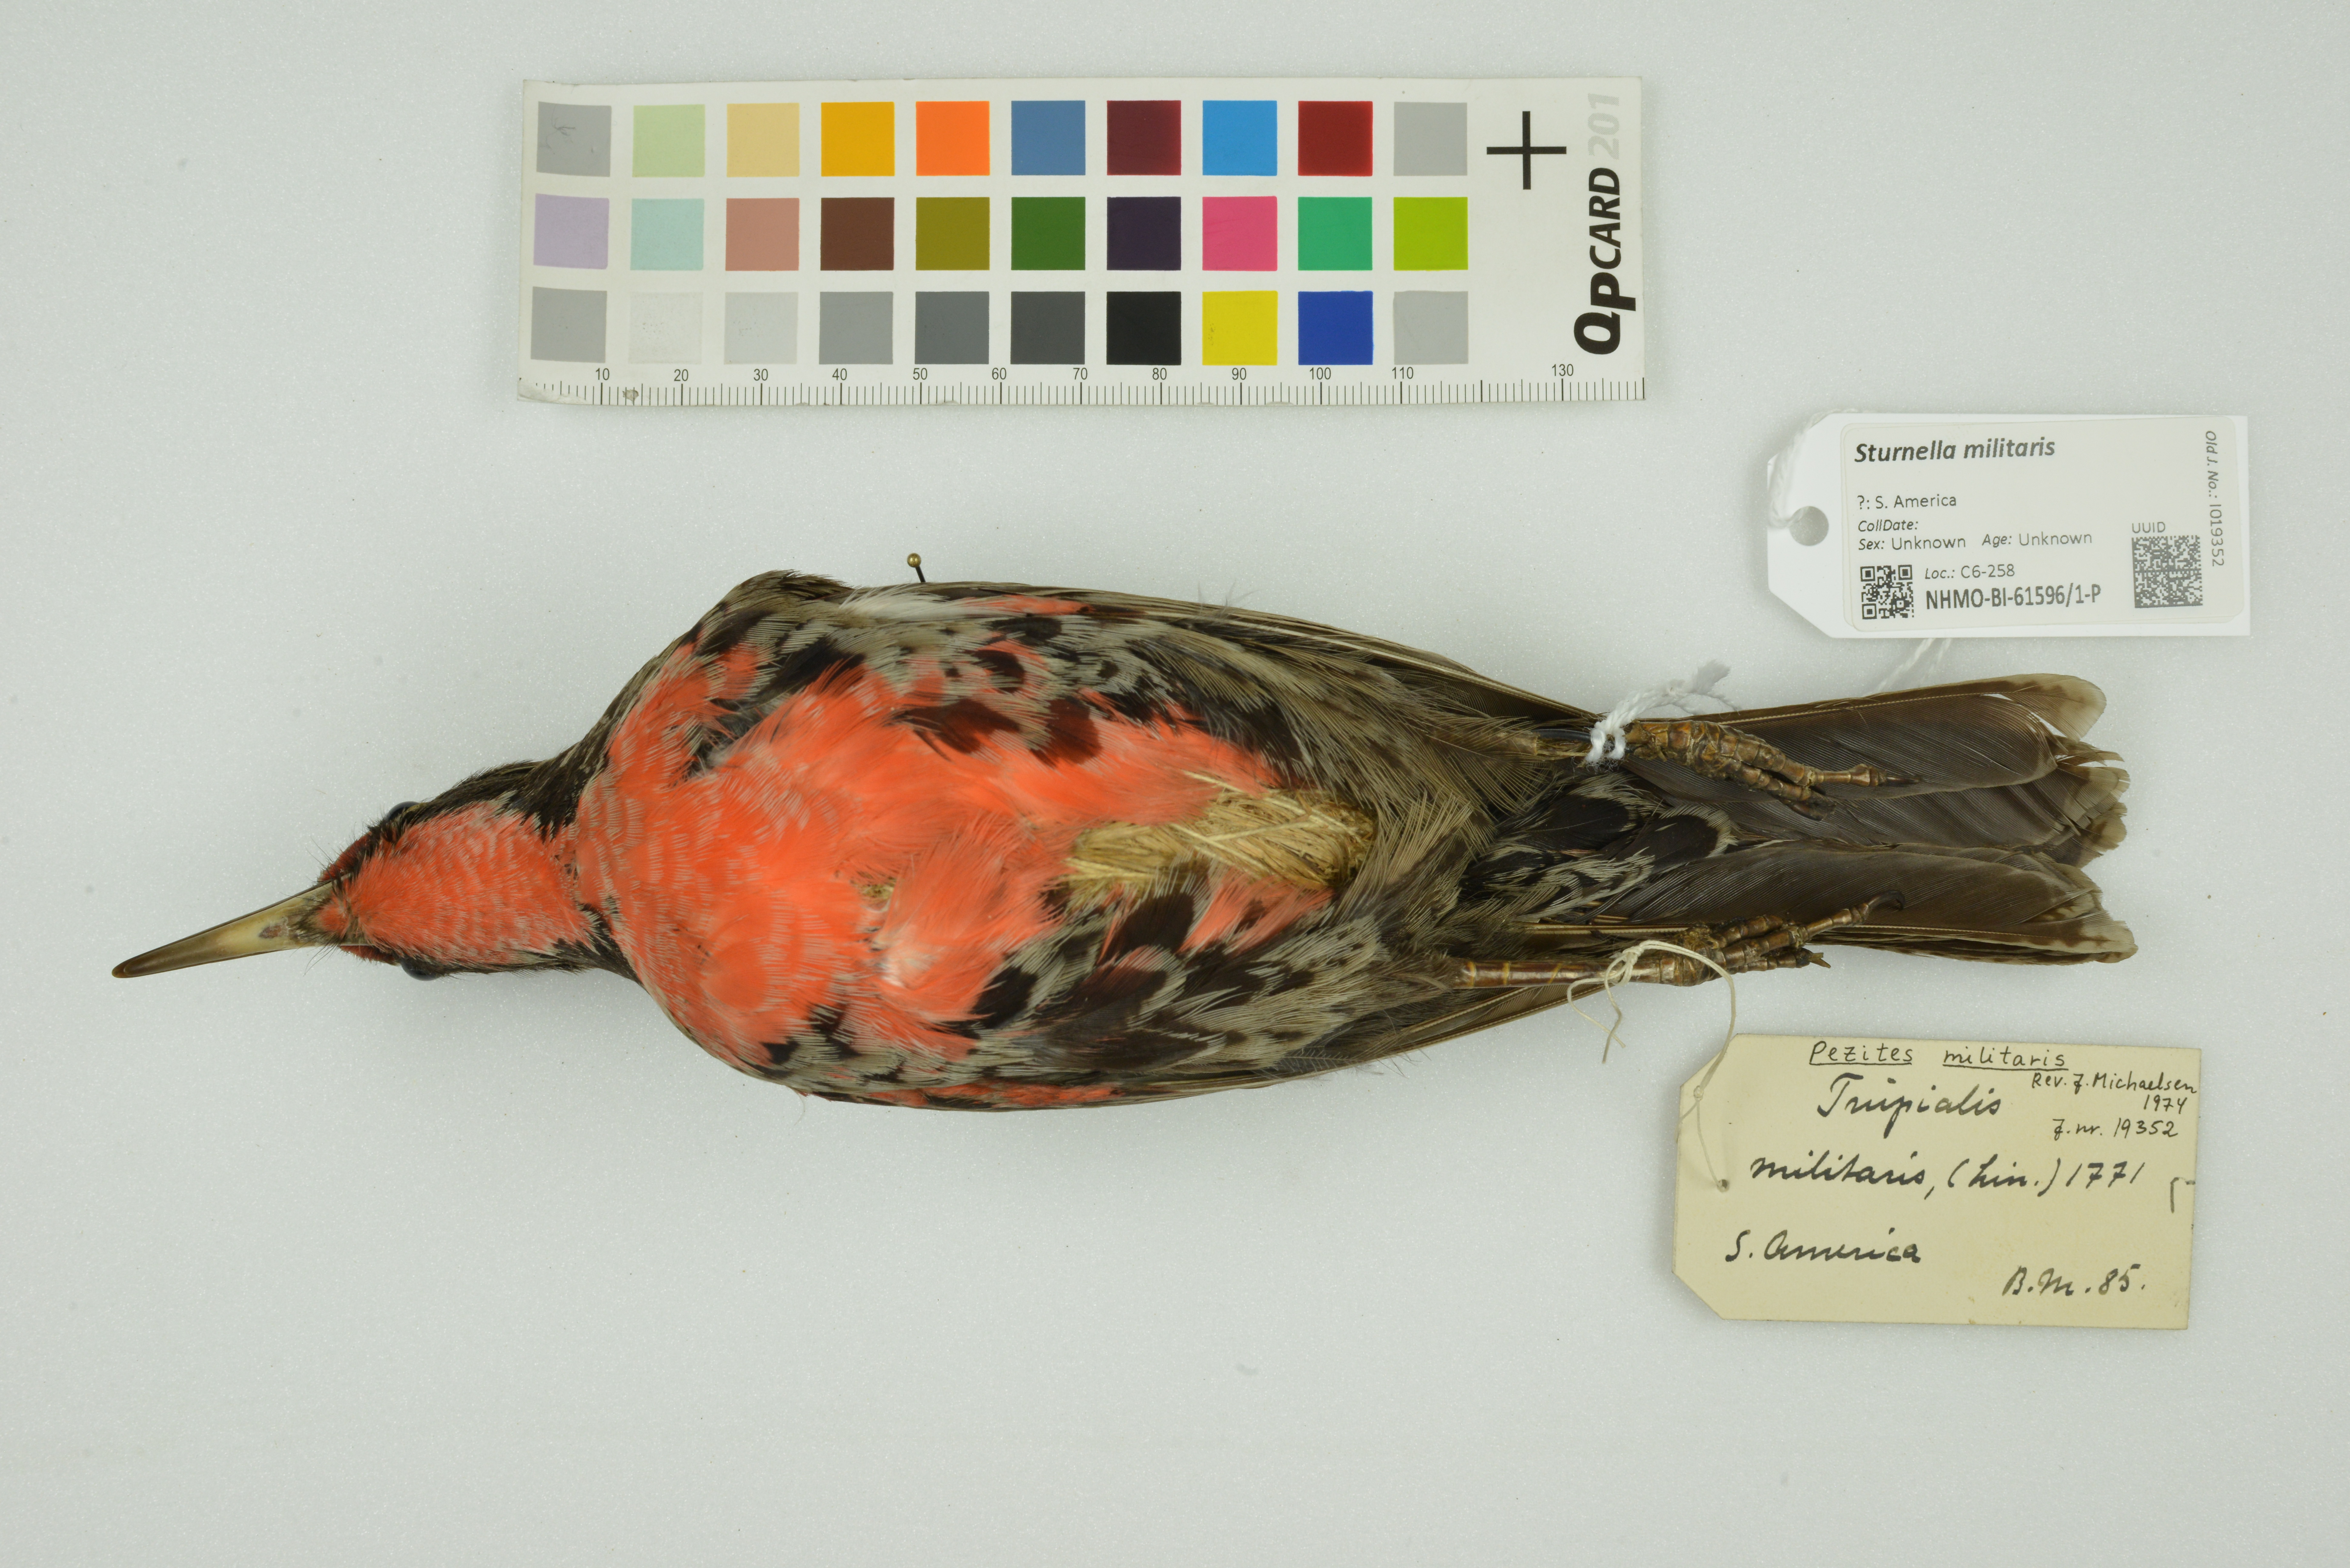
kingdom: Animalia
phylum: Chordata
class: Aves
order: Passeriformes
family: Icteridae
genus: Sturnella
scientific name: Sturnella militaris
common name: Red-breasted blackbird
